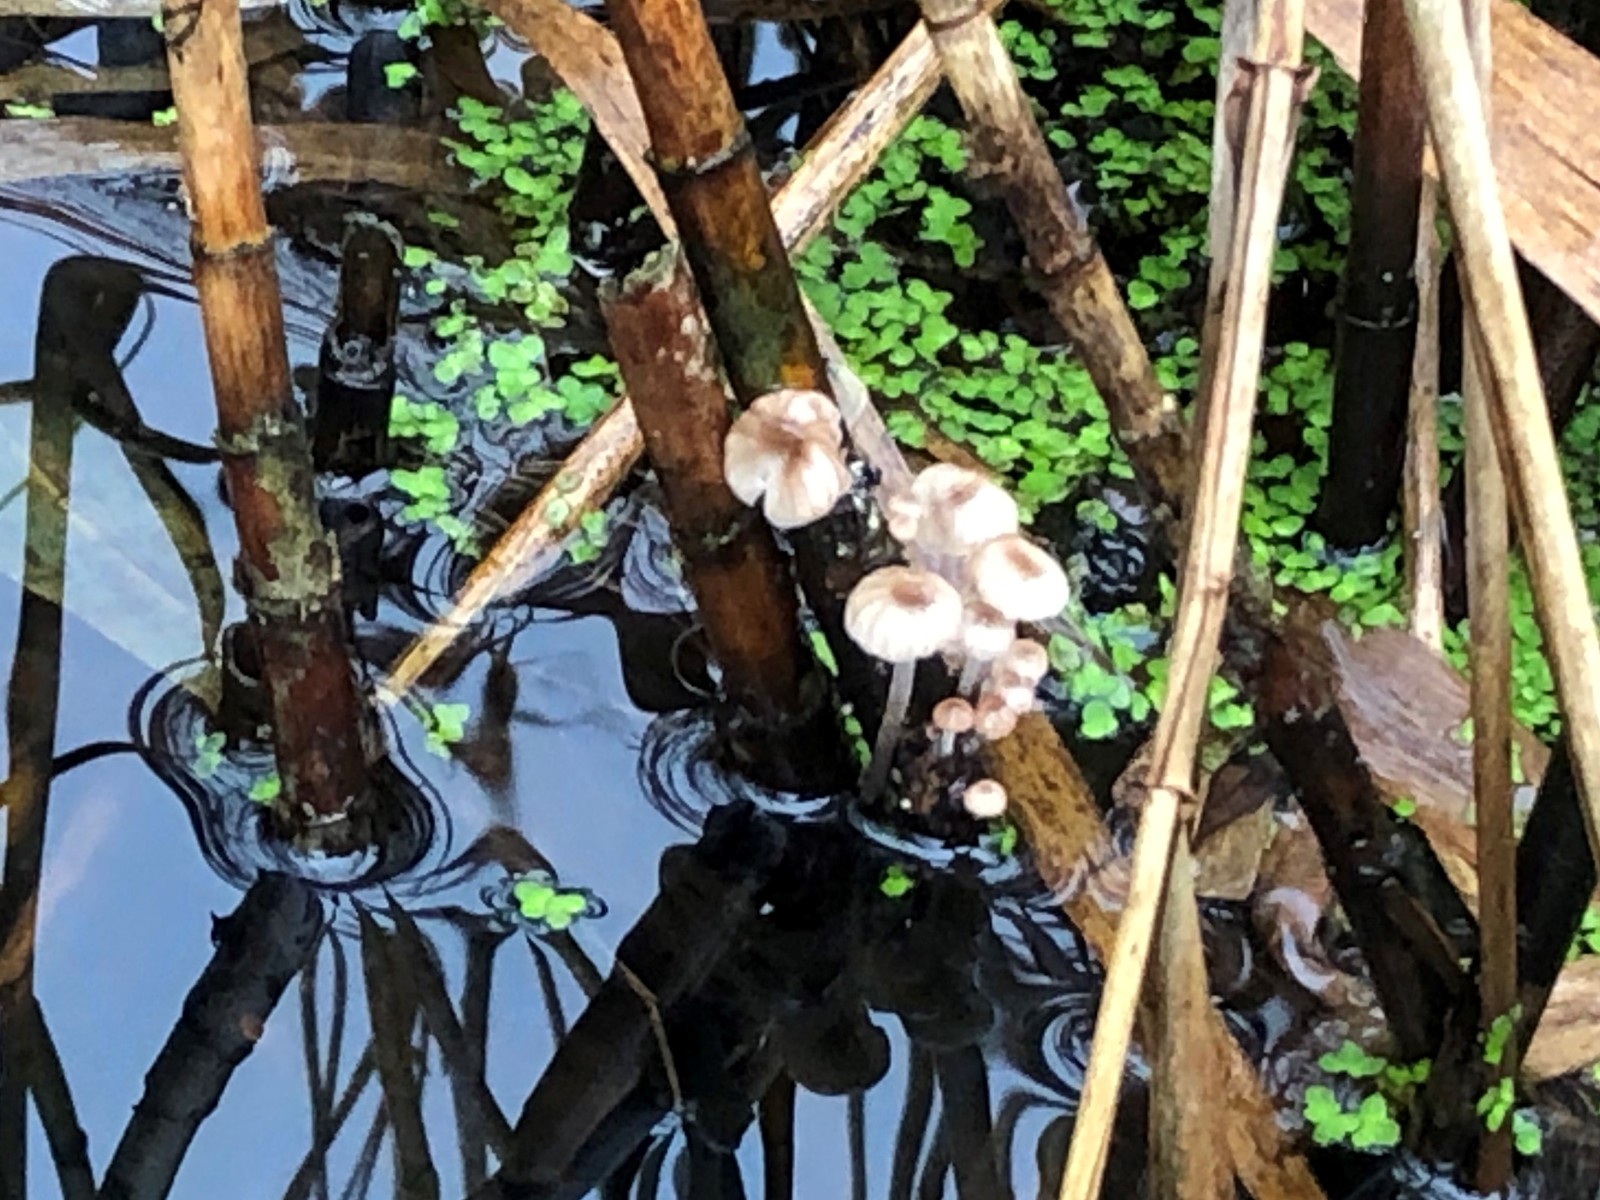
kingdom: Fungi
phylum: Basidiomycota
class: Agaricomycetes
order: Agaricales
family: Mycenaceae
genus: Mycena
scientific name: Mycena belliae
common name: tagrørs-huesvamp
